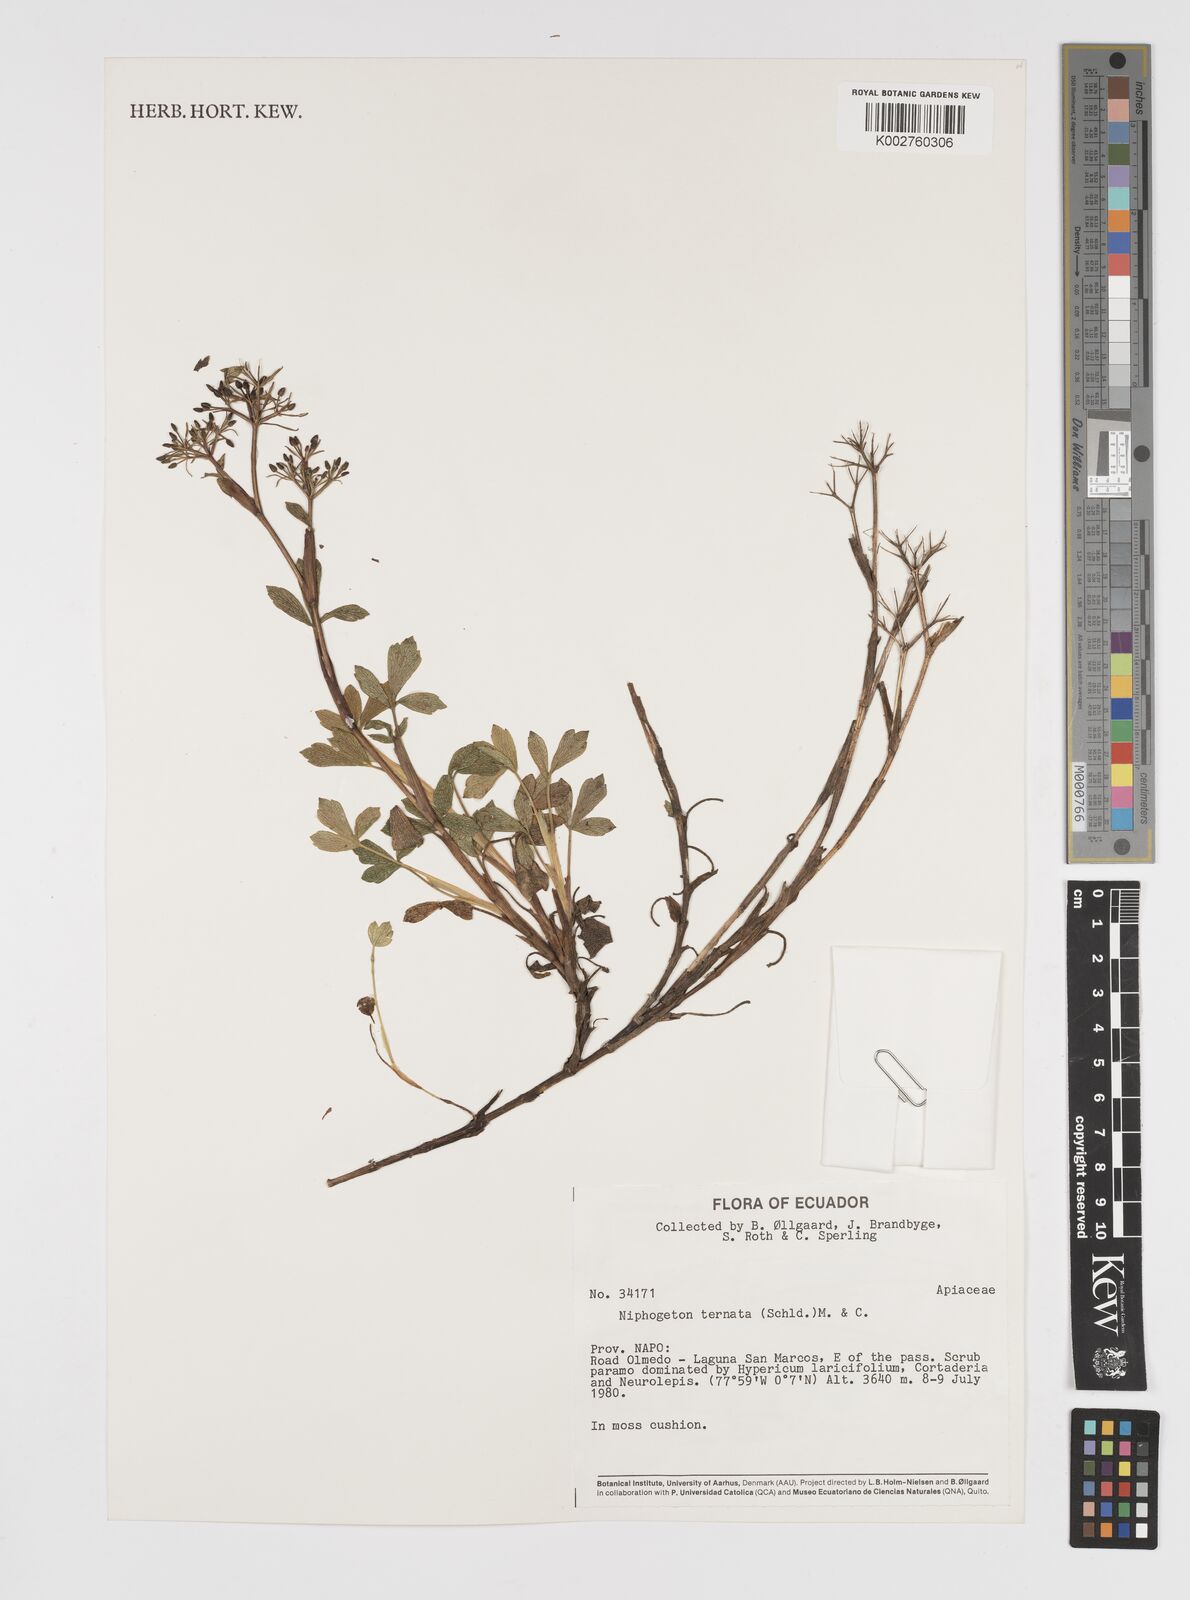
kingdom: Plantae
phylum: Tracheophyta
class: Magnoliopsida
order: Apiales
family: Apiaceae
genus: Niphogeton
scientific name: Niphogeton ternata
